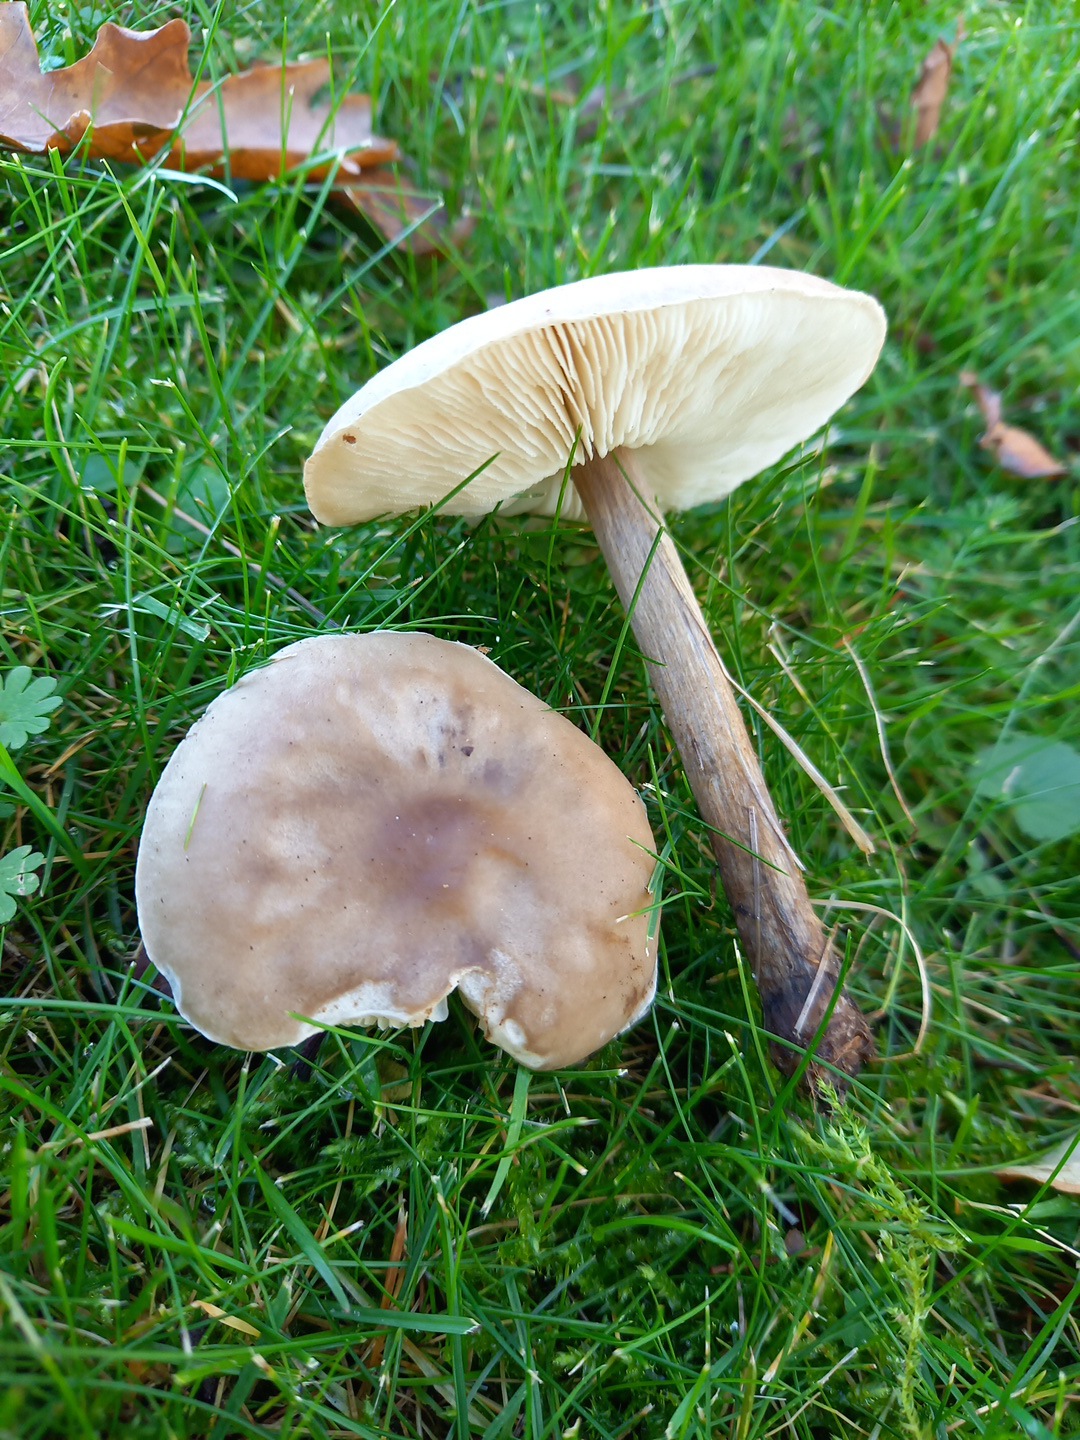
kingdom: Fungi
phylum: Basidiomycota
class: Agaricomycetes
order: Agaricales
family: Tricholomataceae
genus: Melanoleuca
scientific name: Melanoleuca
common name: munkehat
